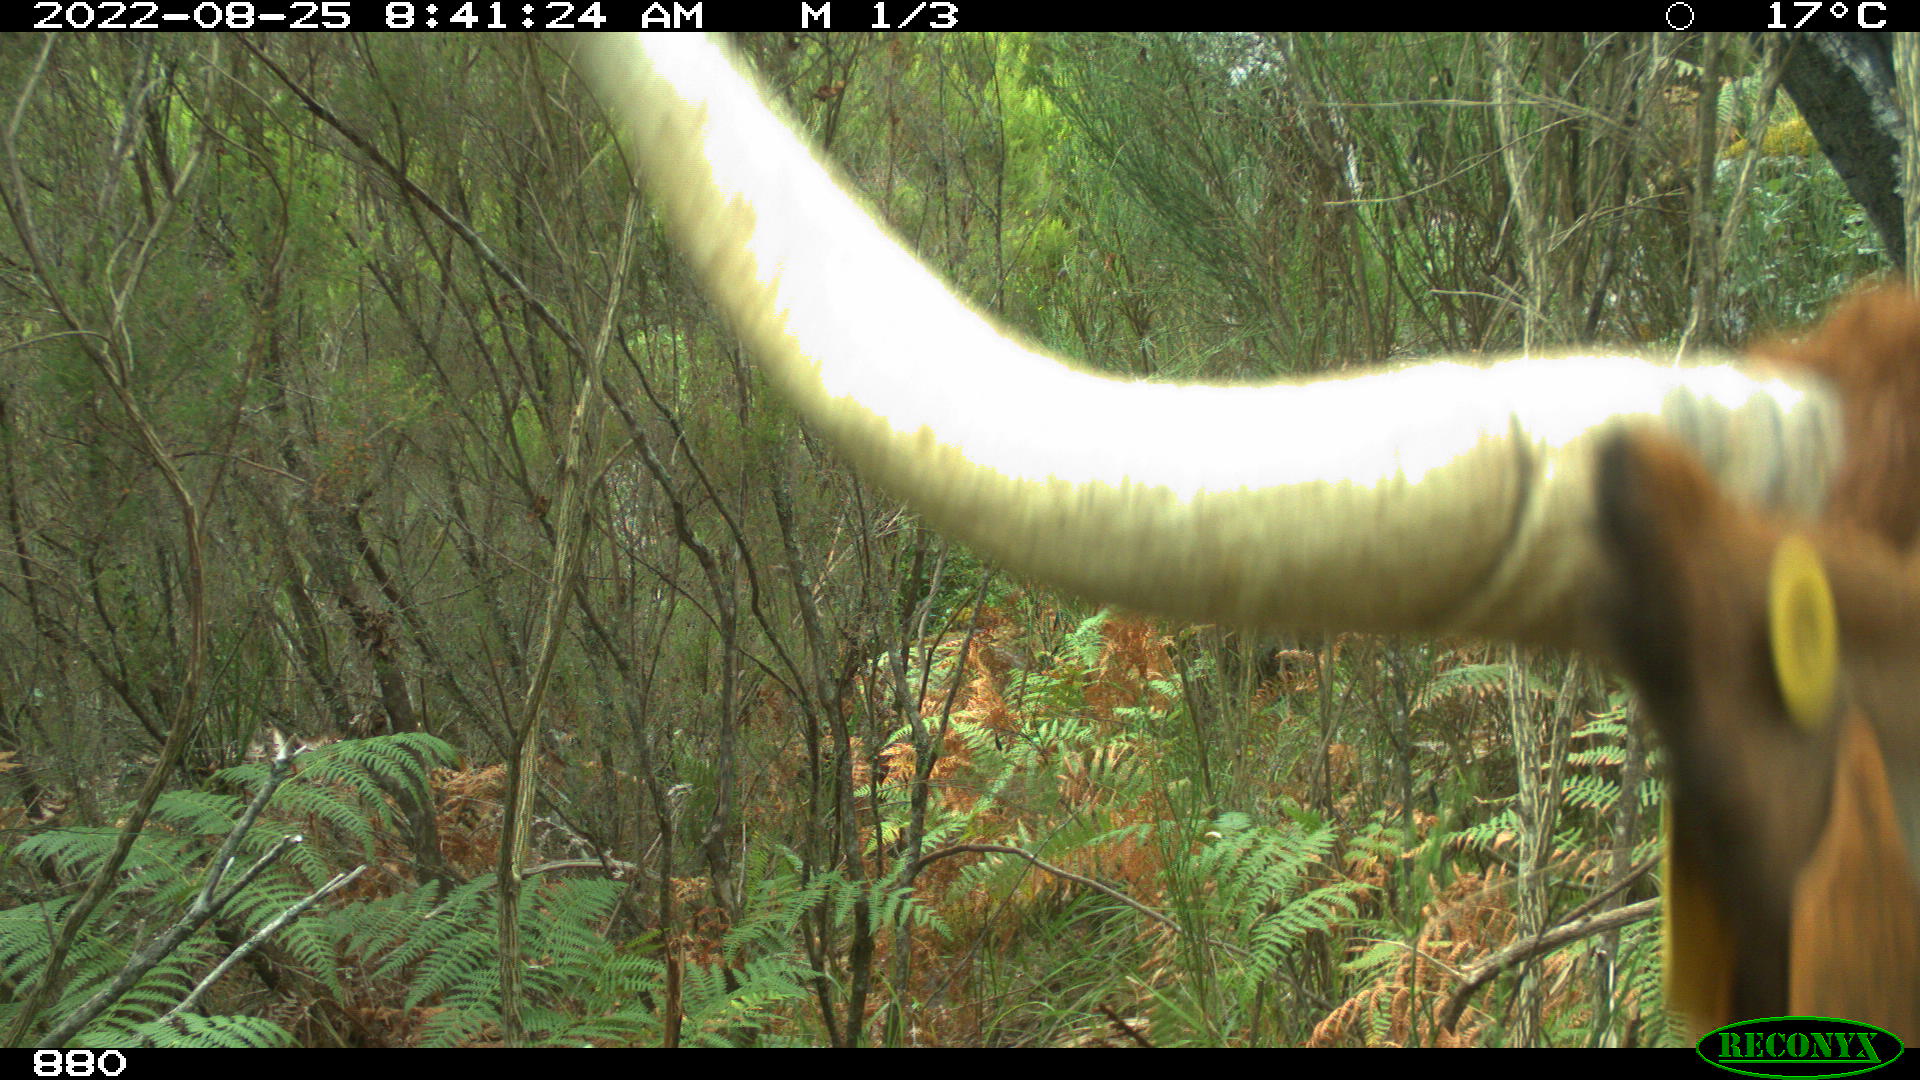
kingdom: Animalia
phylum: Chordata
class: Mammalia
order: Artiodactyla
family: Bovidae
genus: Bos
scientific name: Bos taurus
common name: Domesticated cattle
